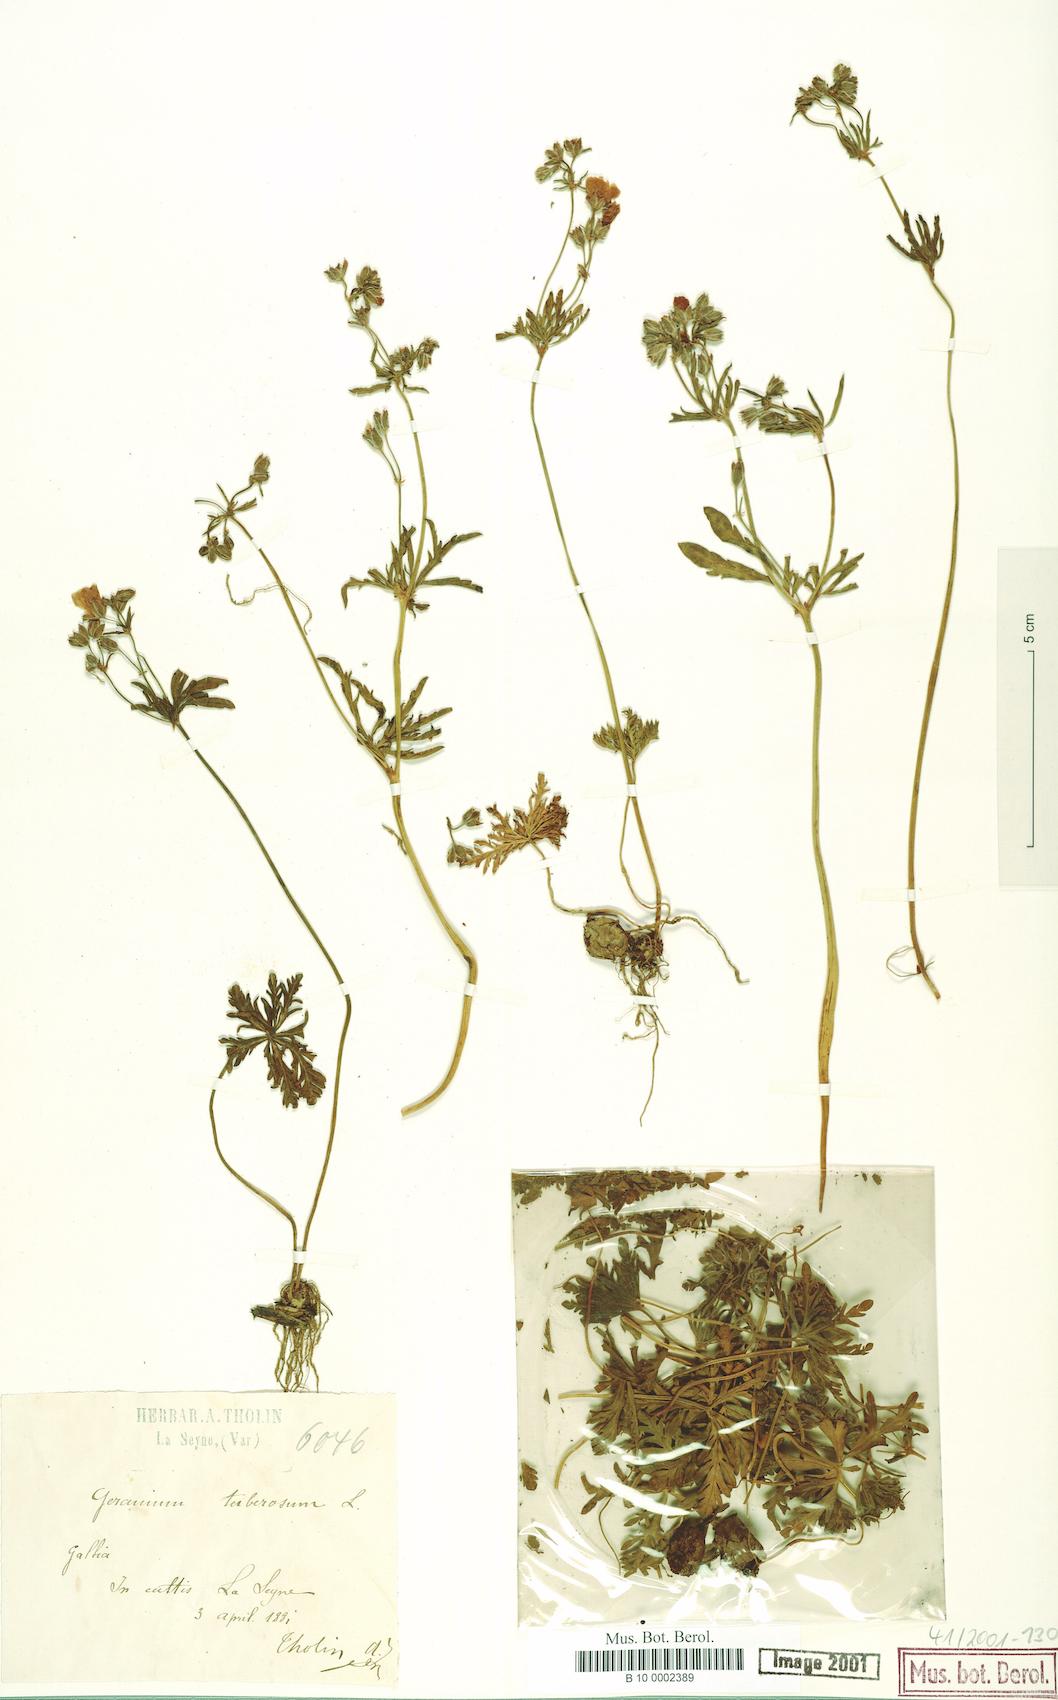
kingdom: Plantae
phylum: Tracheophyta
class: Magnoliopsida
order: Geraniales
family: Geraniaceae
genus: Geranium
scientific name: Geranium tuberosum
